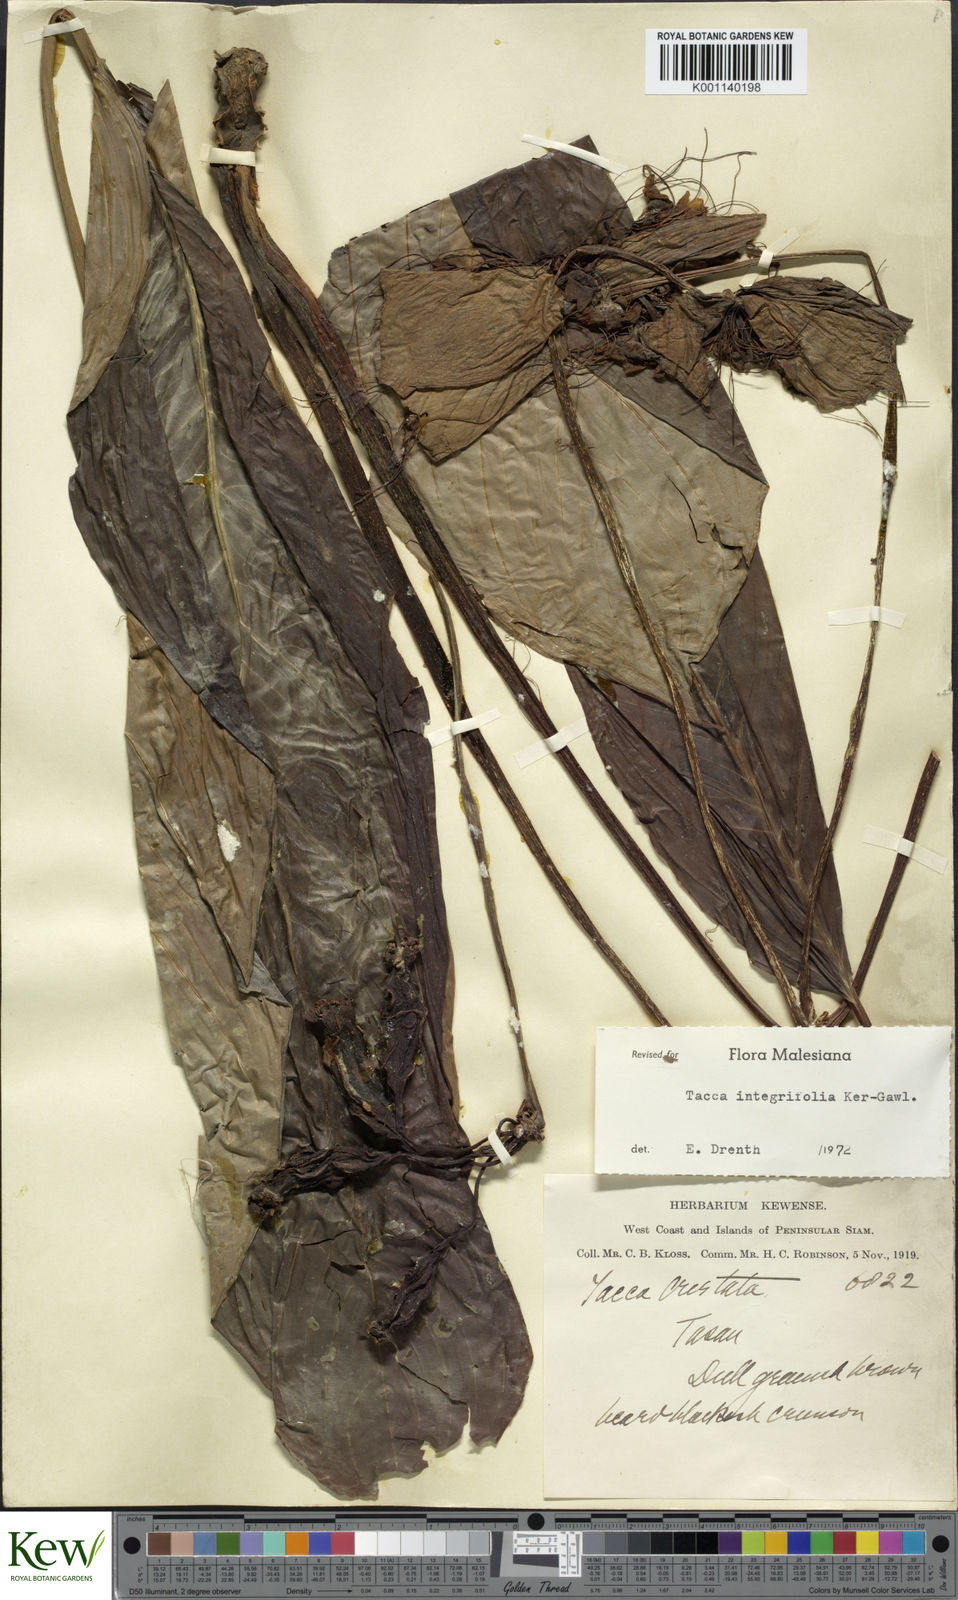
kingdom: Plantae
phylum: Tracheophyta
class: Liliopsida
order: Dioscoreales
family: Dioscoreaceae
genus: Tacca
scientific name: Tacca integrifolia
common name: Batplant
